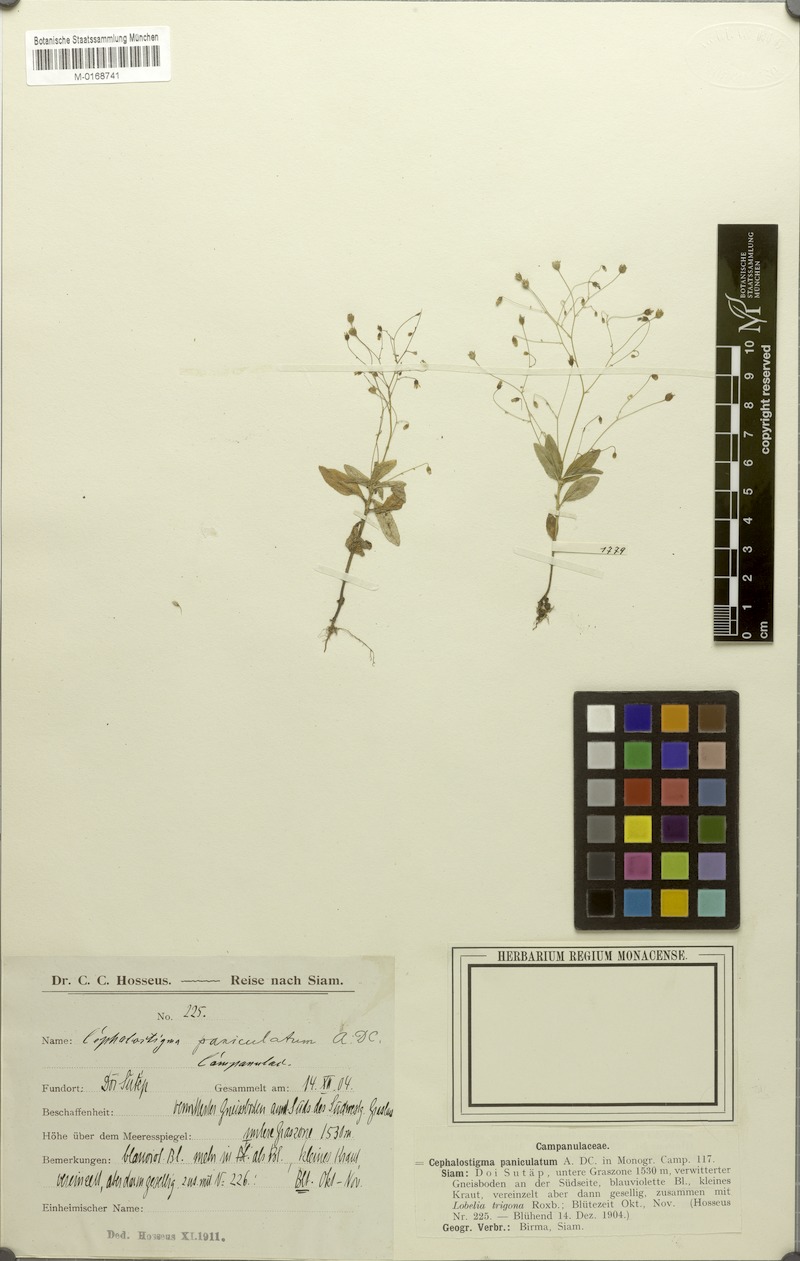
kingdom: Plantae
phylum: Tracheophyta
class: Magnoliopsida
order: Asterales
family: Campanulaceae
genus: Wahlenbergia
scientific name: Wahlenbergia hookeri
